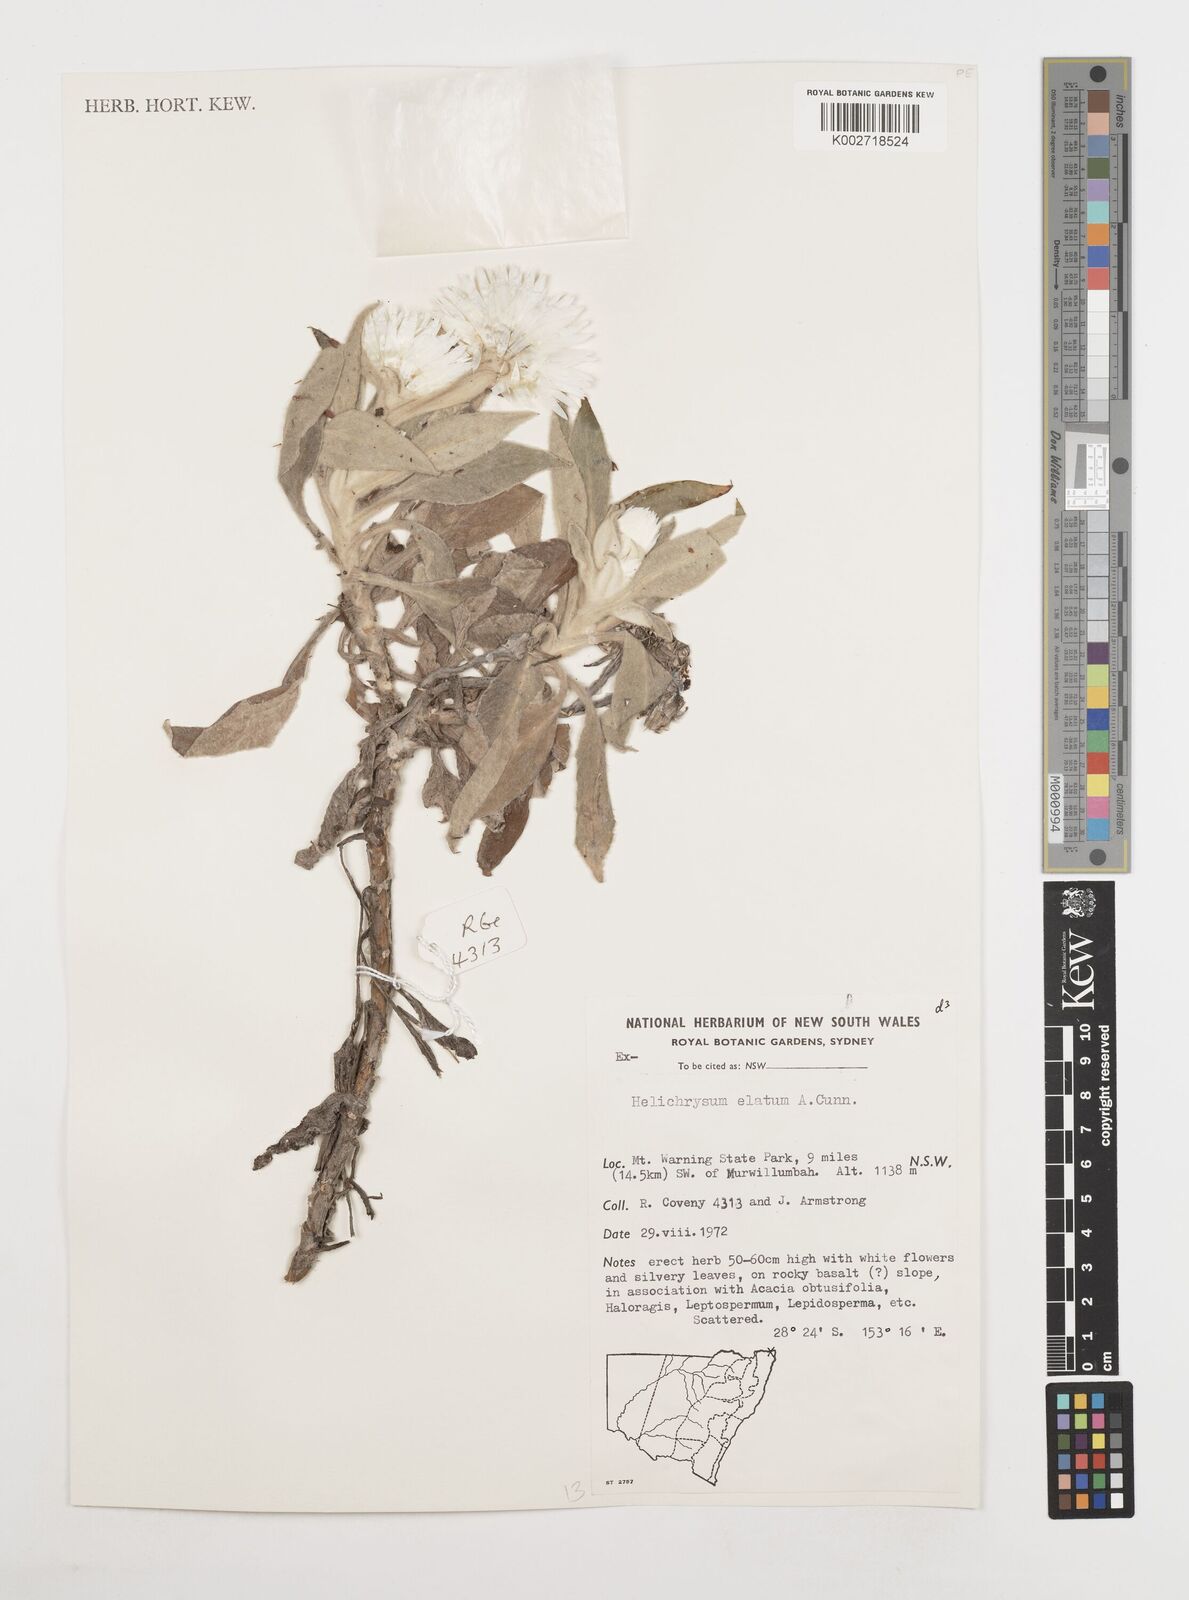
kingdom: Plantae
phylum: Tracheophyta
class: Magnoliopsida
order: Asterales
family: Asteraceae
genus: Leucozoma
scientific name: Leucozoma elatum
